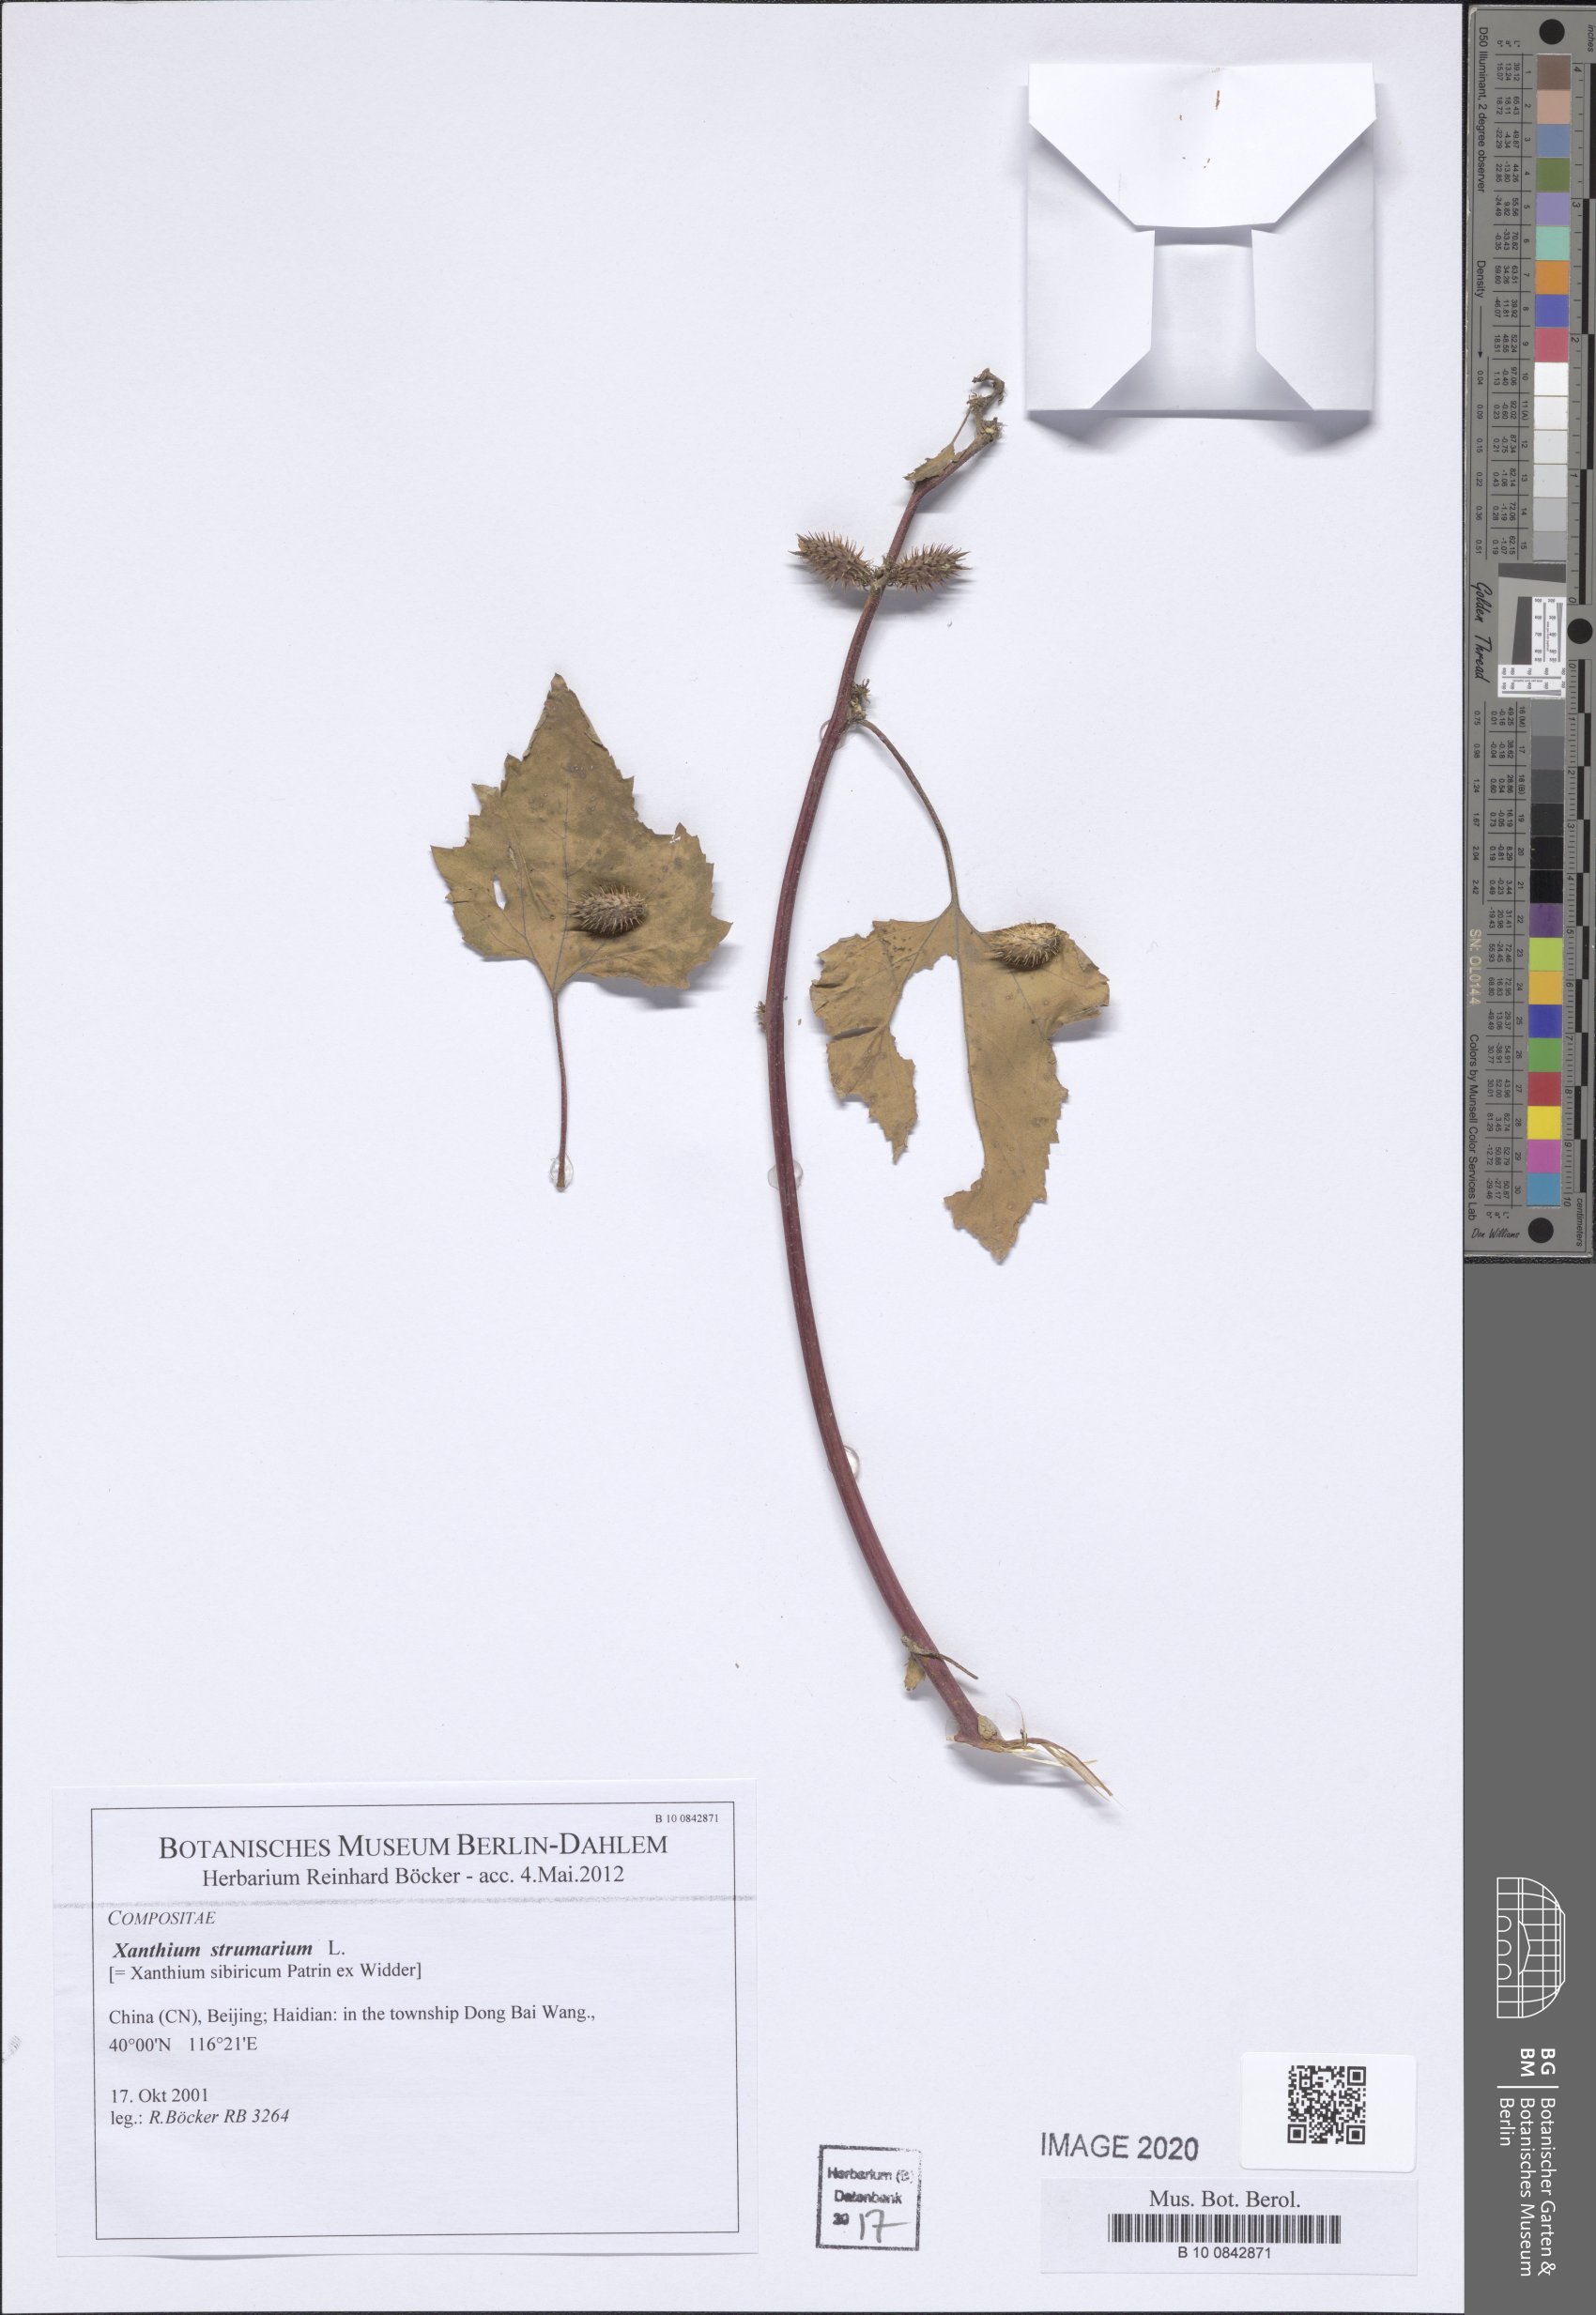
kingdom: Plantae
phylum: Tracheophyta
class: Magnoliopsida
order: Asterales
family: Asteraceae
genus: Xanthium
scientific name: Xanthium strumarium
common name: Rough cocklebur
